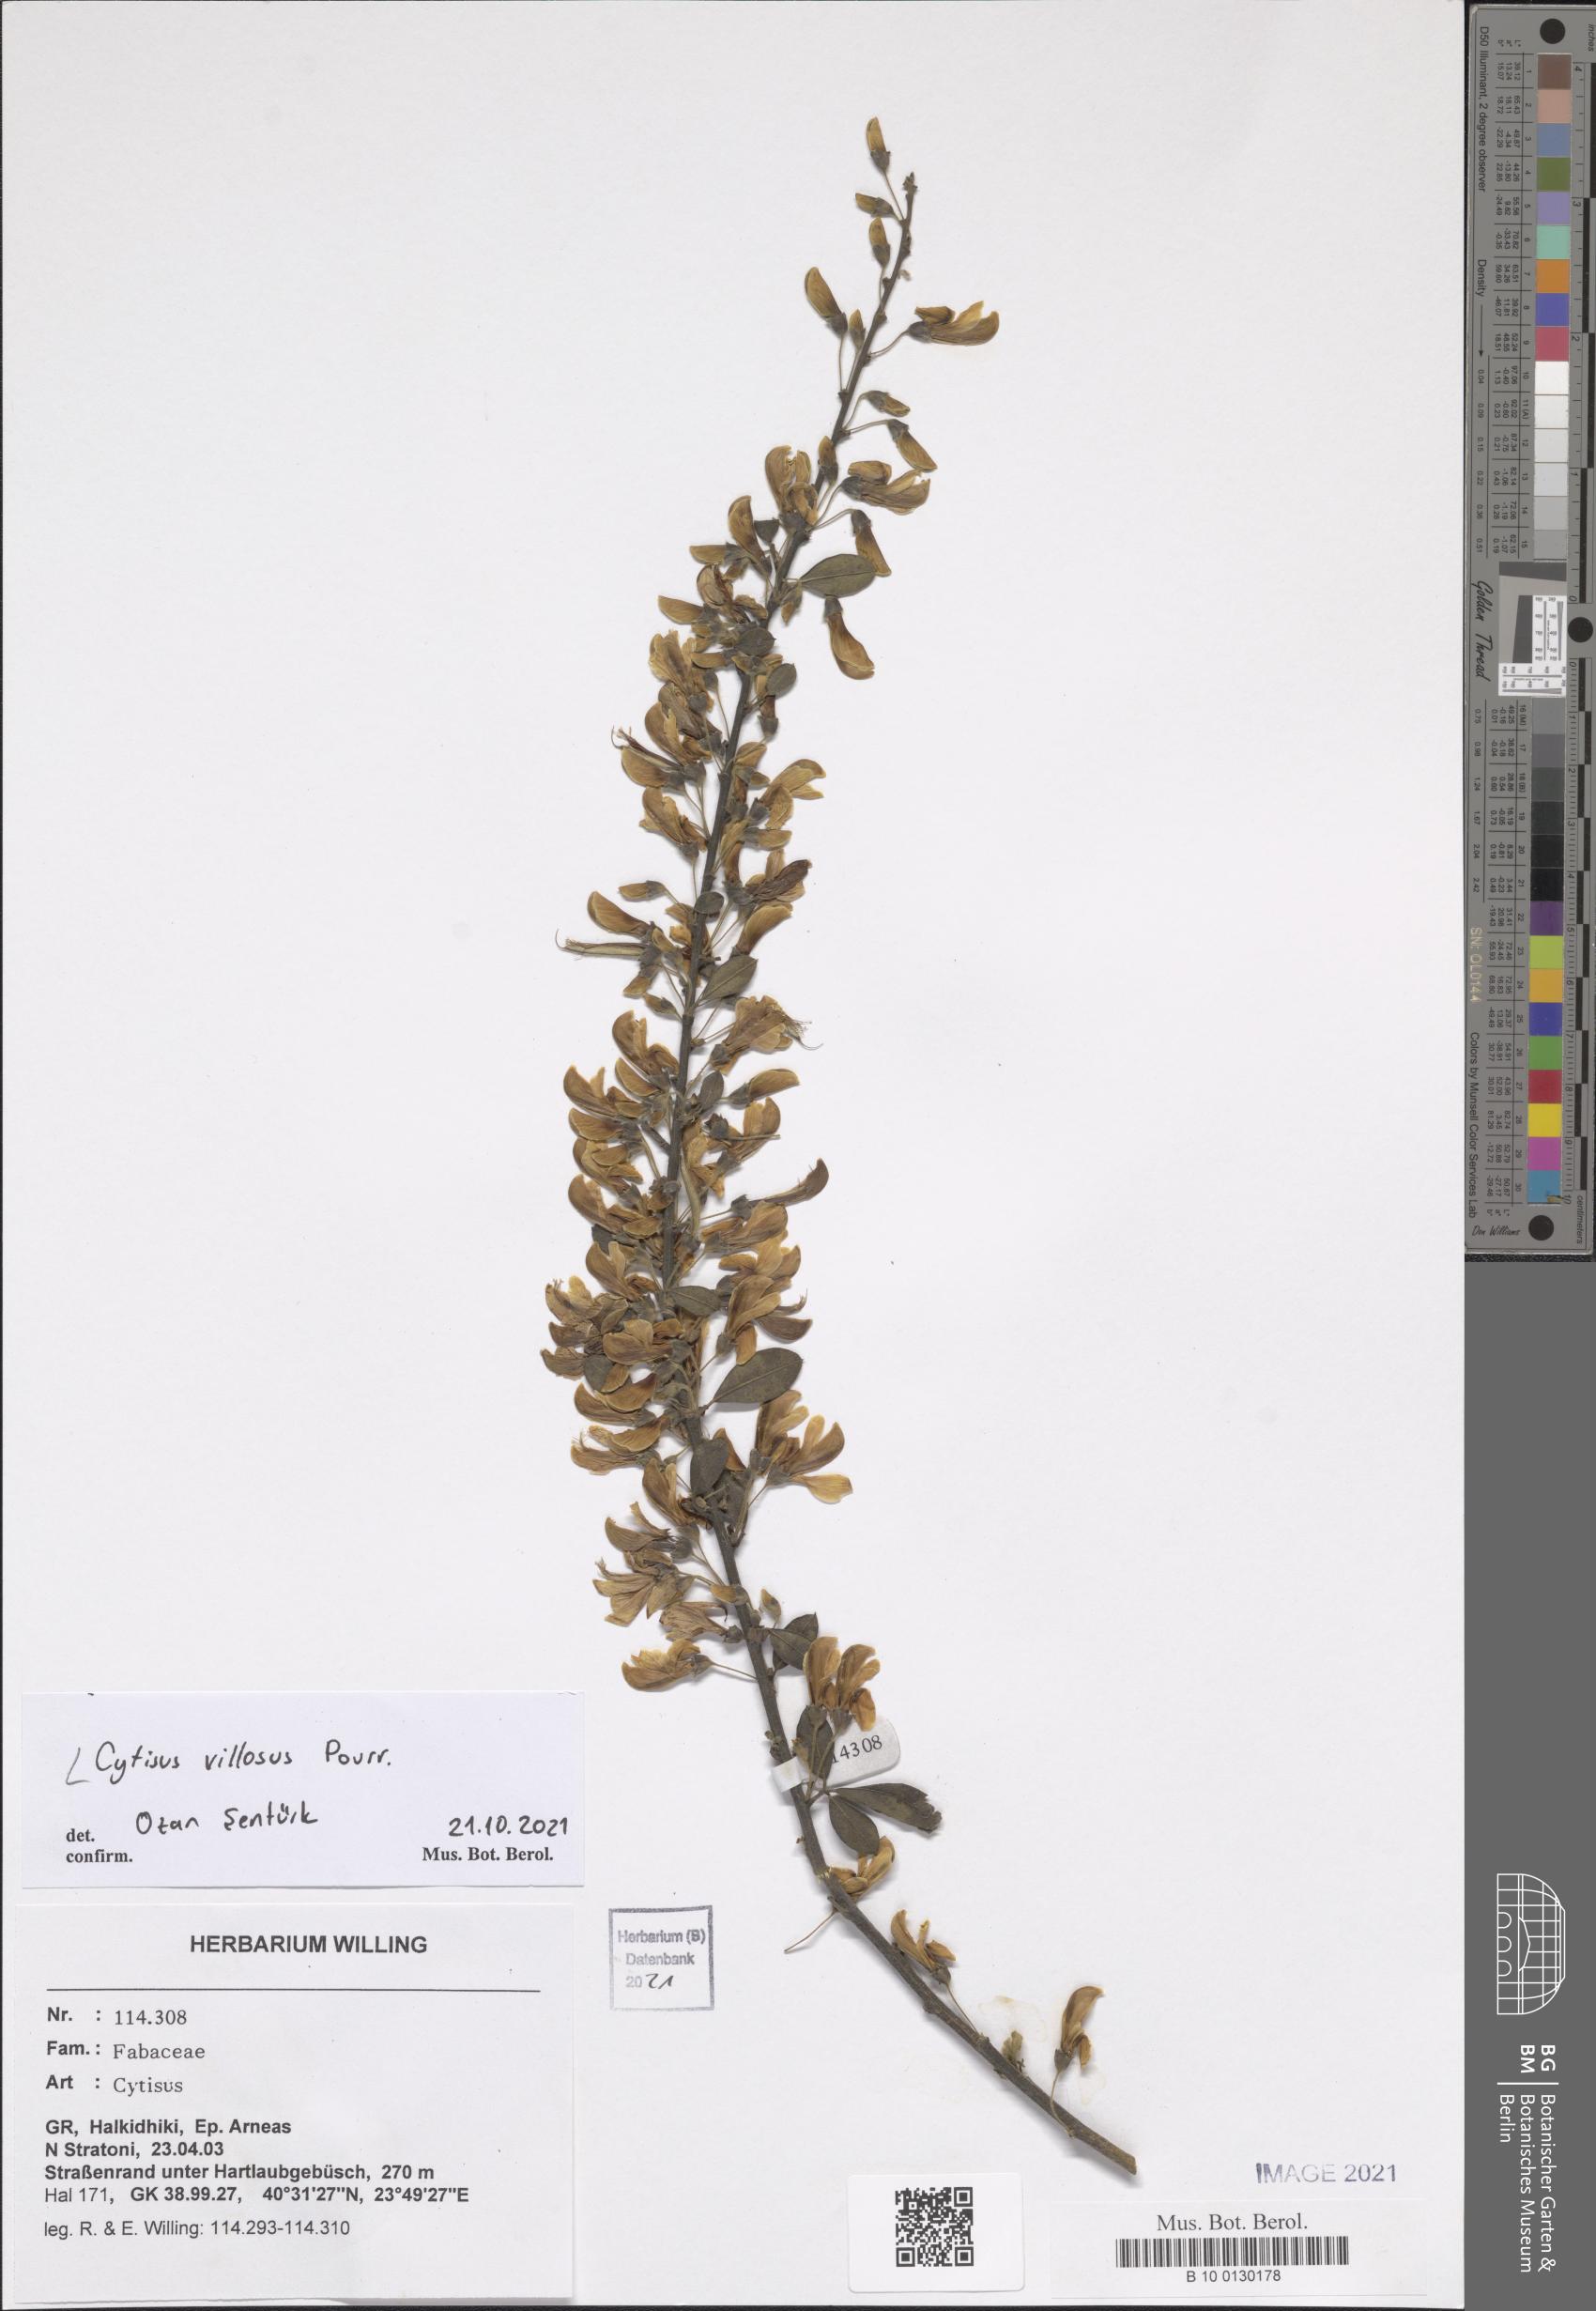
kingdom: Plantae
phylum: Tracheophyta
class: Magnoliopsida
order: Fabales
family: Fabaceae
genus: Cytisus
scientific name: Cytisus villosus
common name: Hairybroom
